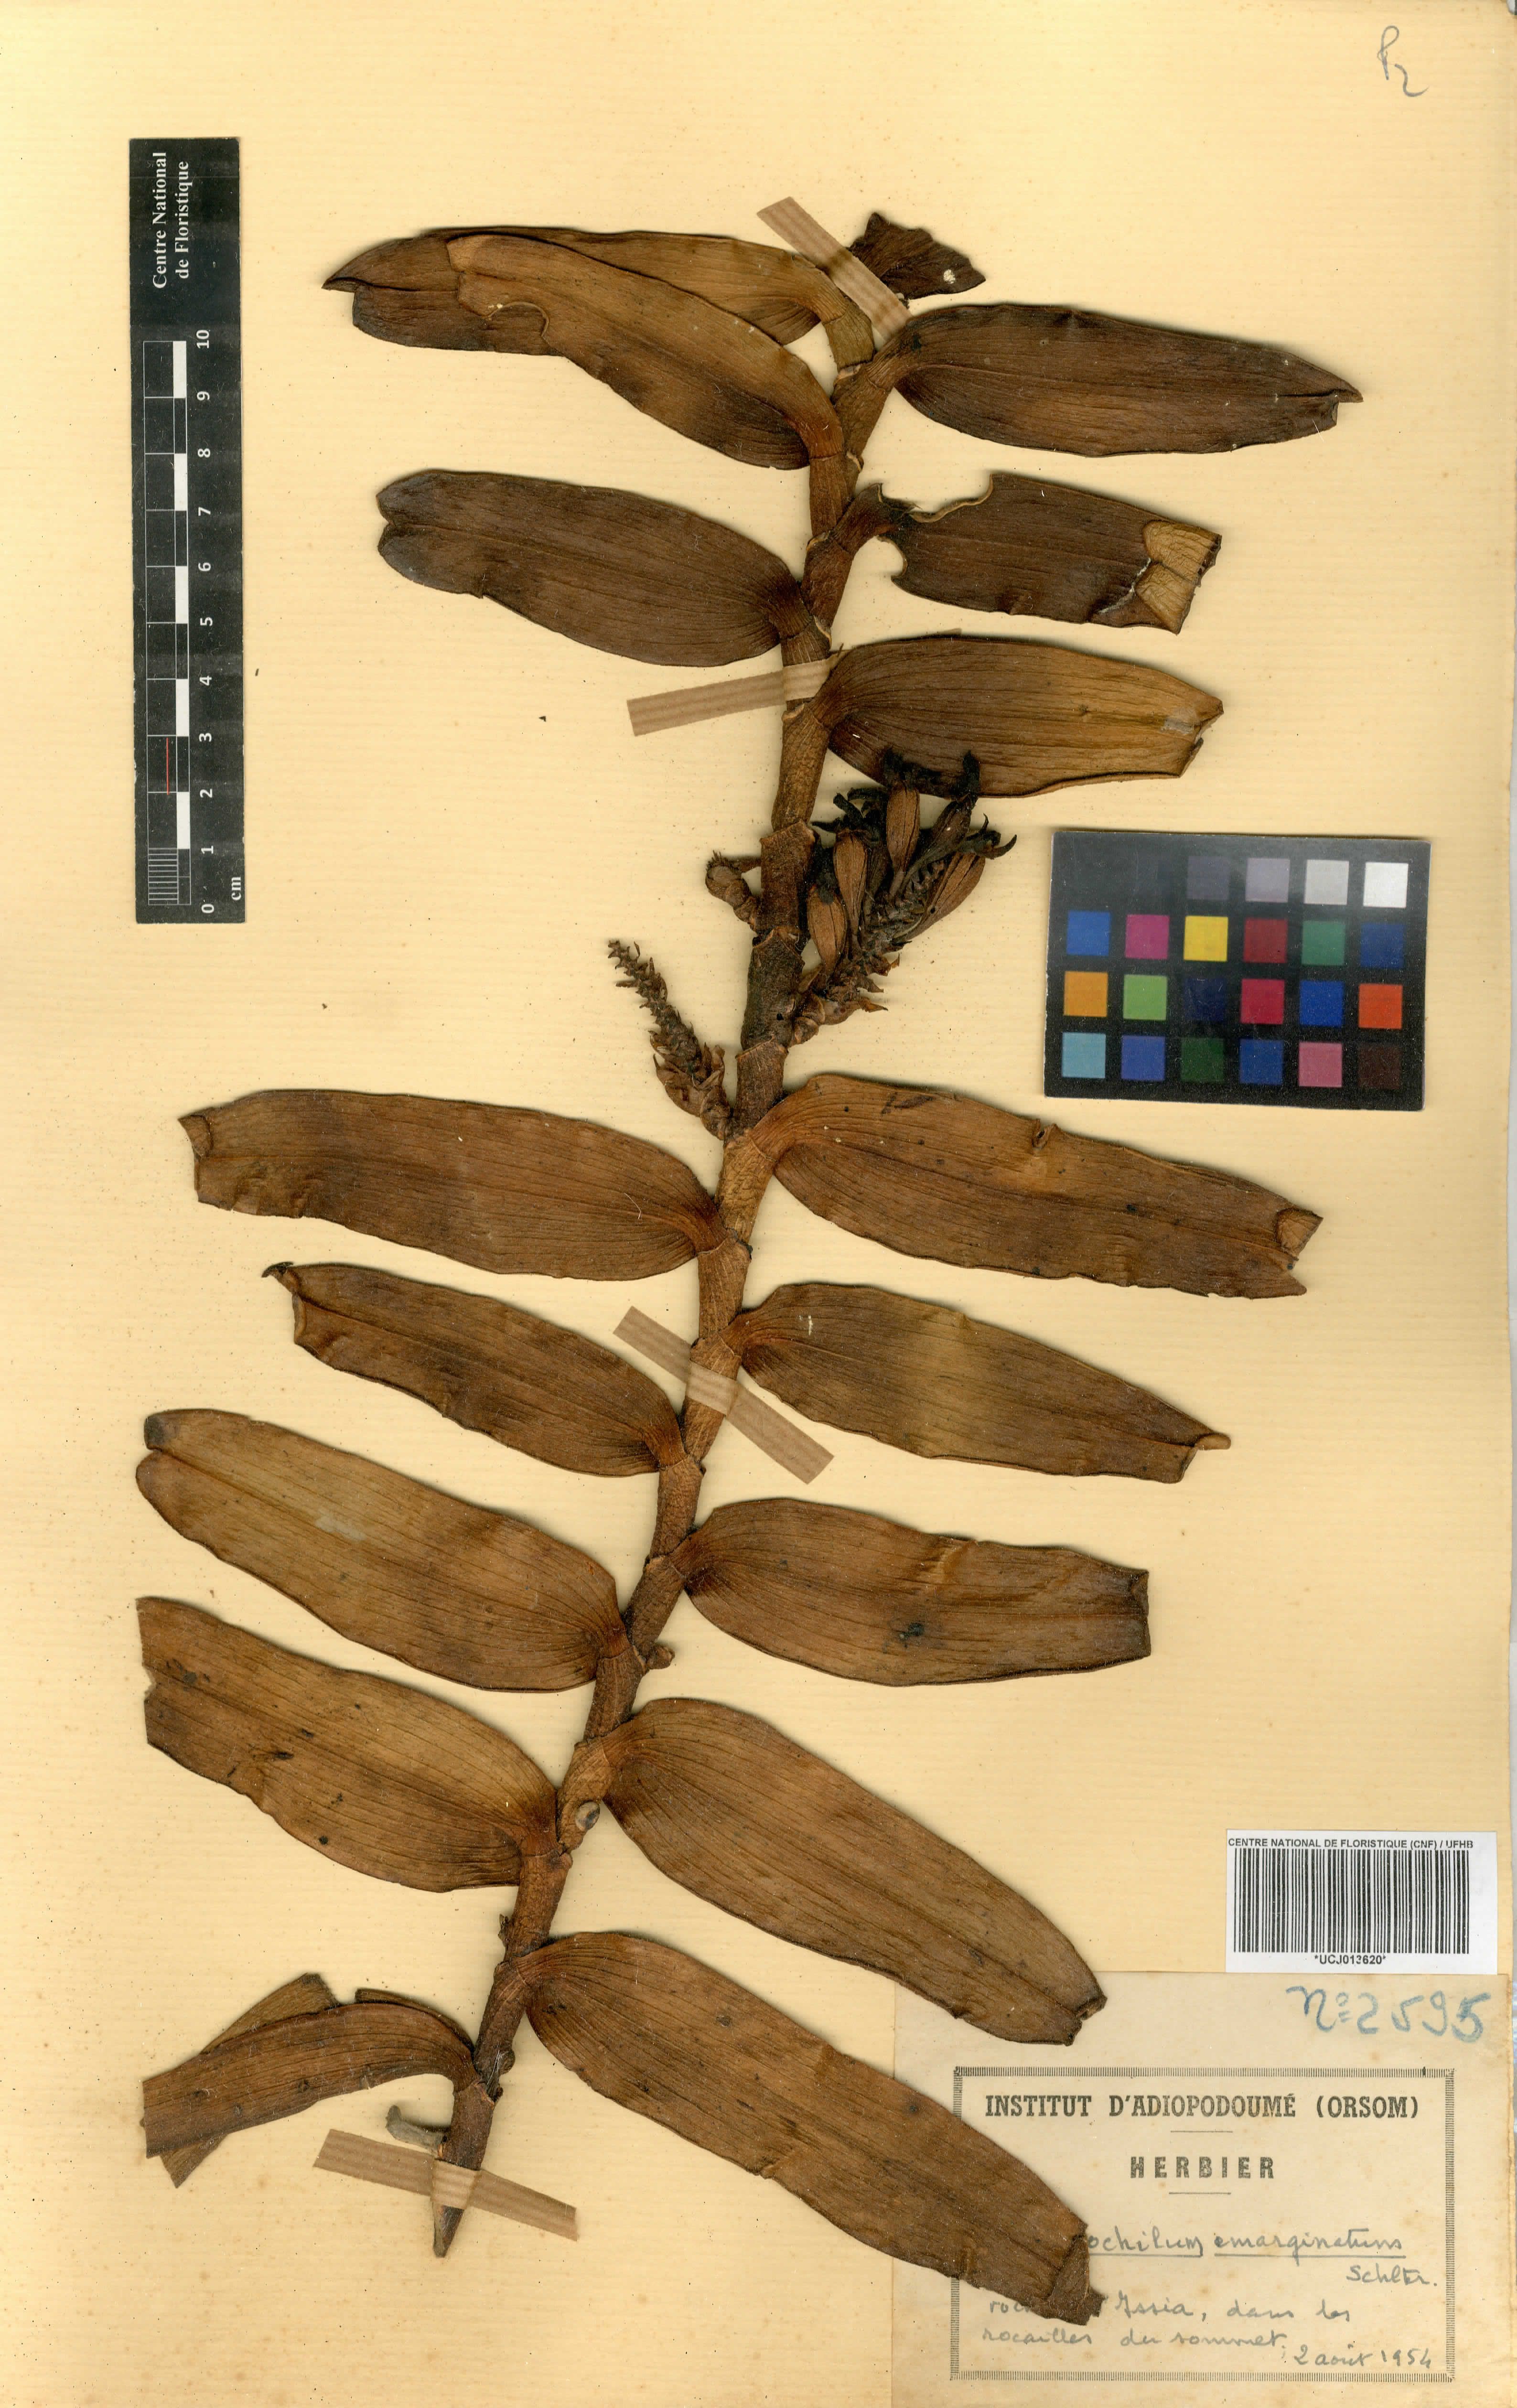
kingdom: Plantae
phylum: Tracheophyta
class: Liliopsida
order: Asparagales
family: Orchidaceae
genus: Calyptrochilum
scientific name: Calyptrochilum emarginatum
